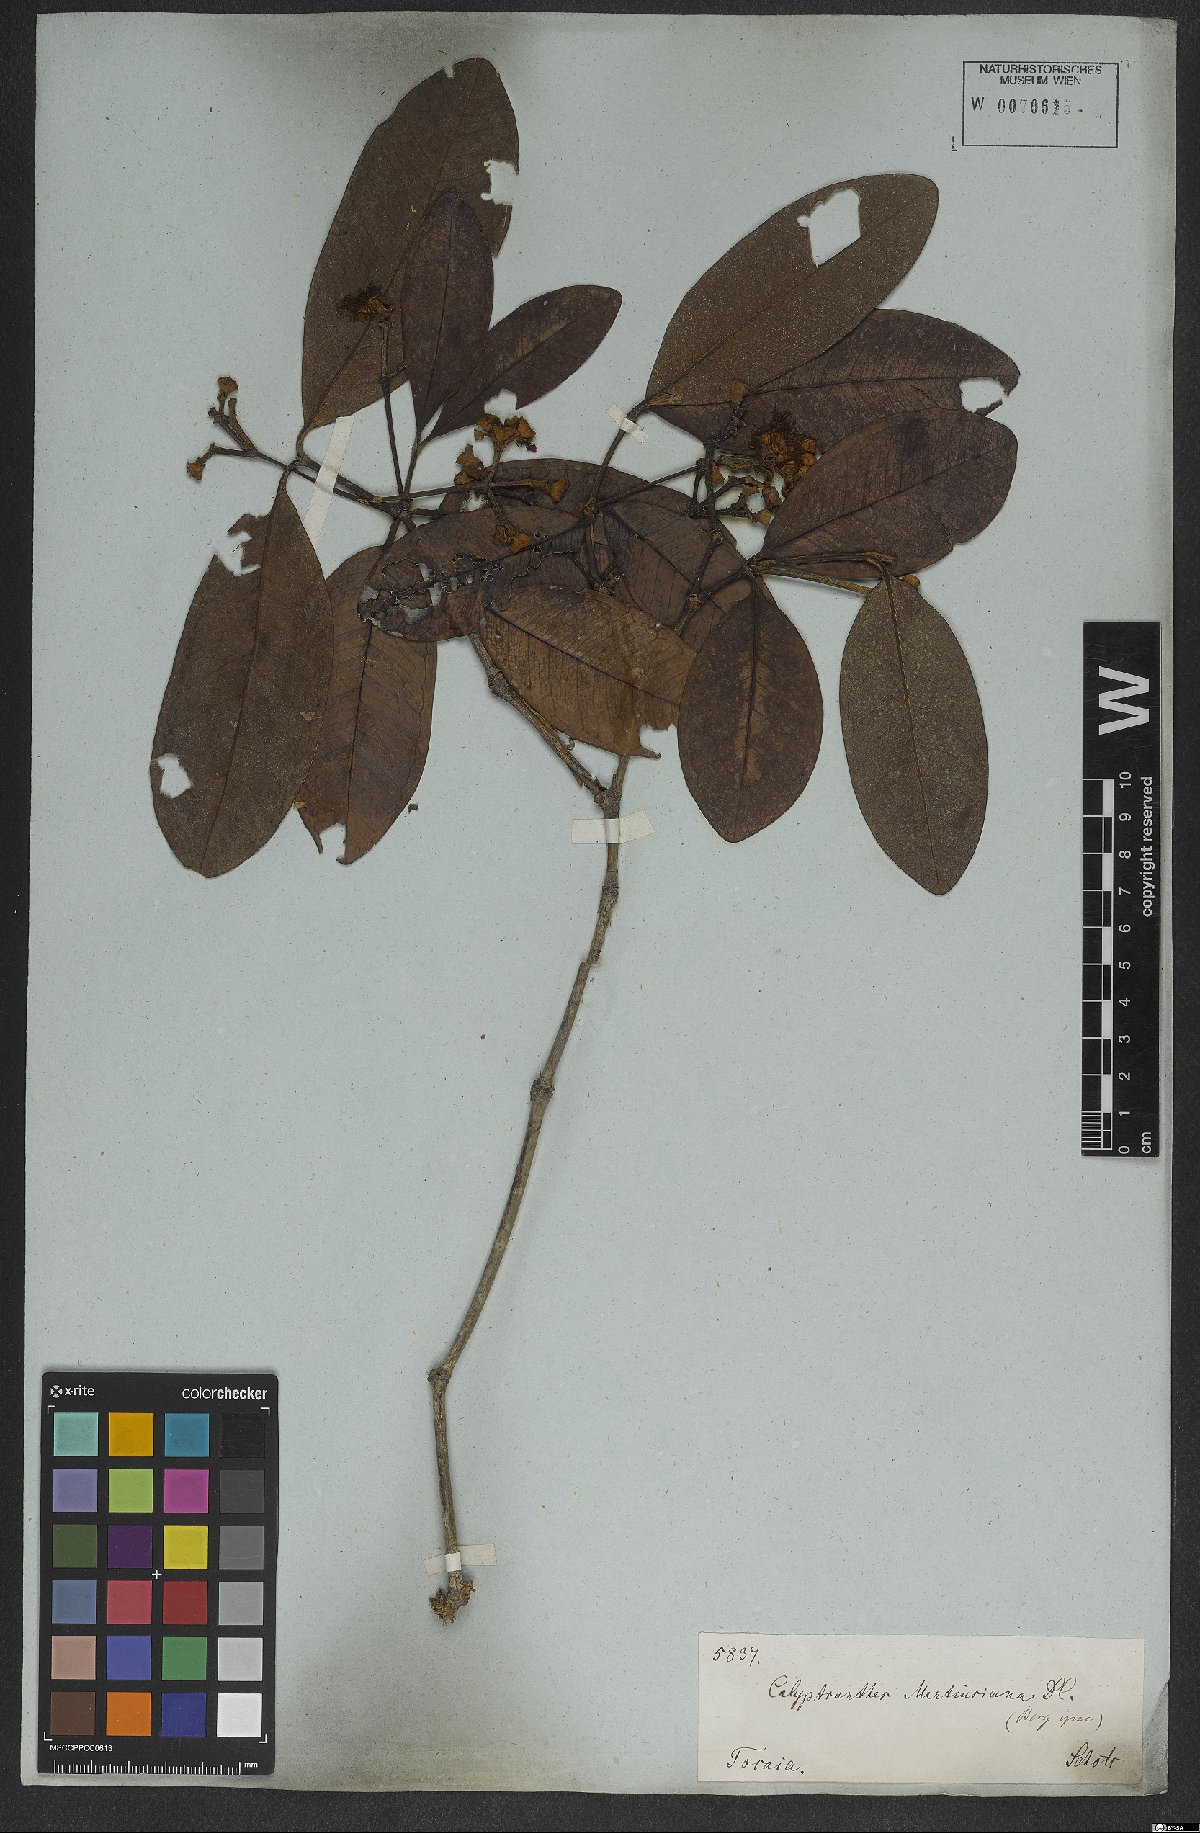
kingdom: Plantae
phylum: Tracheophyta
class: Magnoliopsida
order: Myrtales
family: Myrtaceae
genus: Myrcia
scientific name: Myrcia martiusiana
